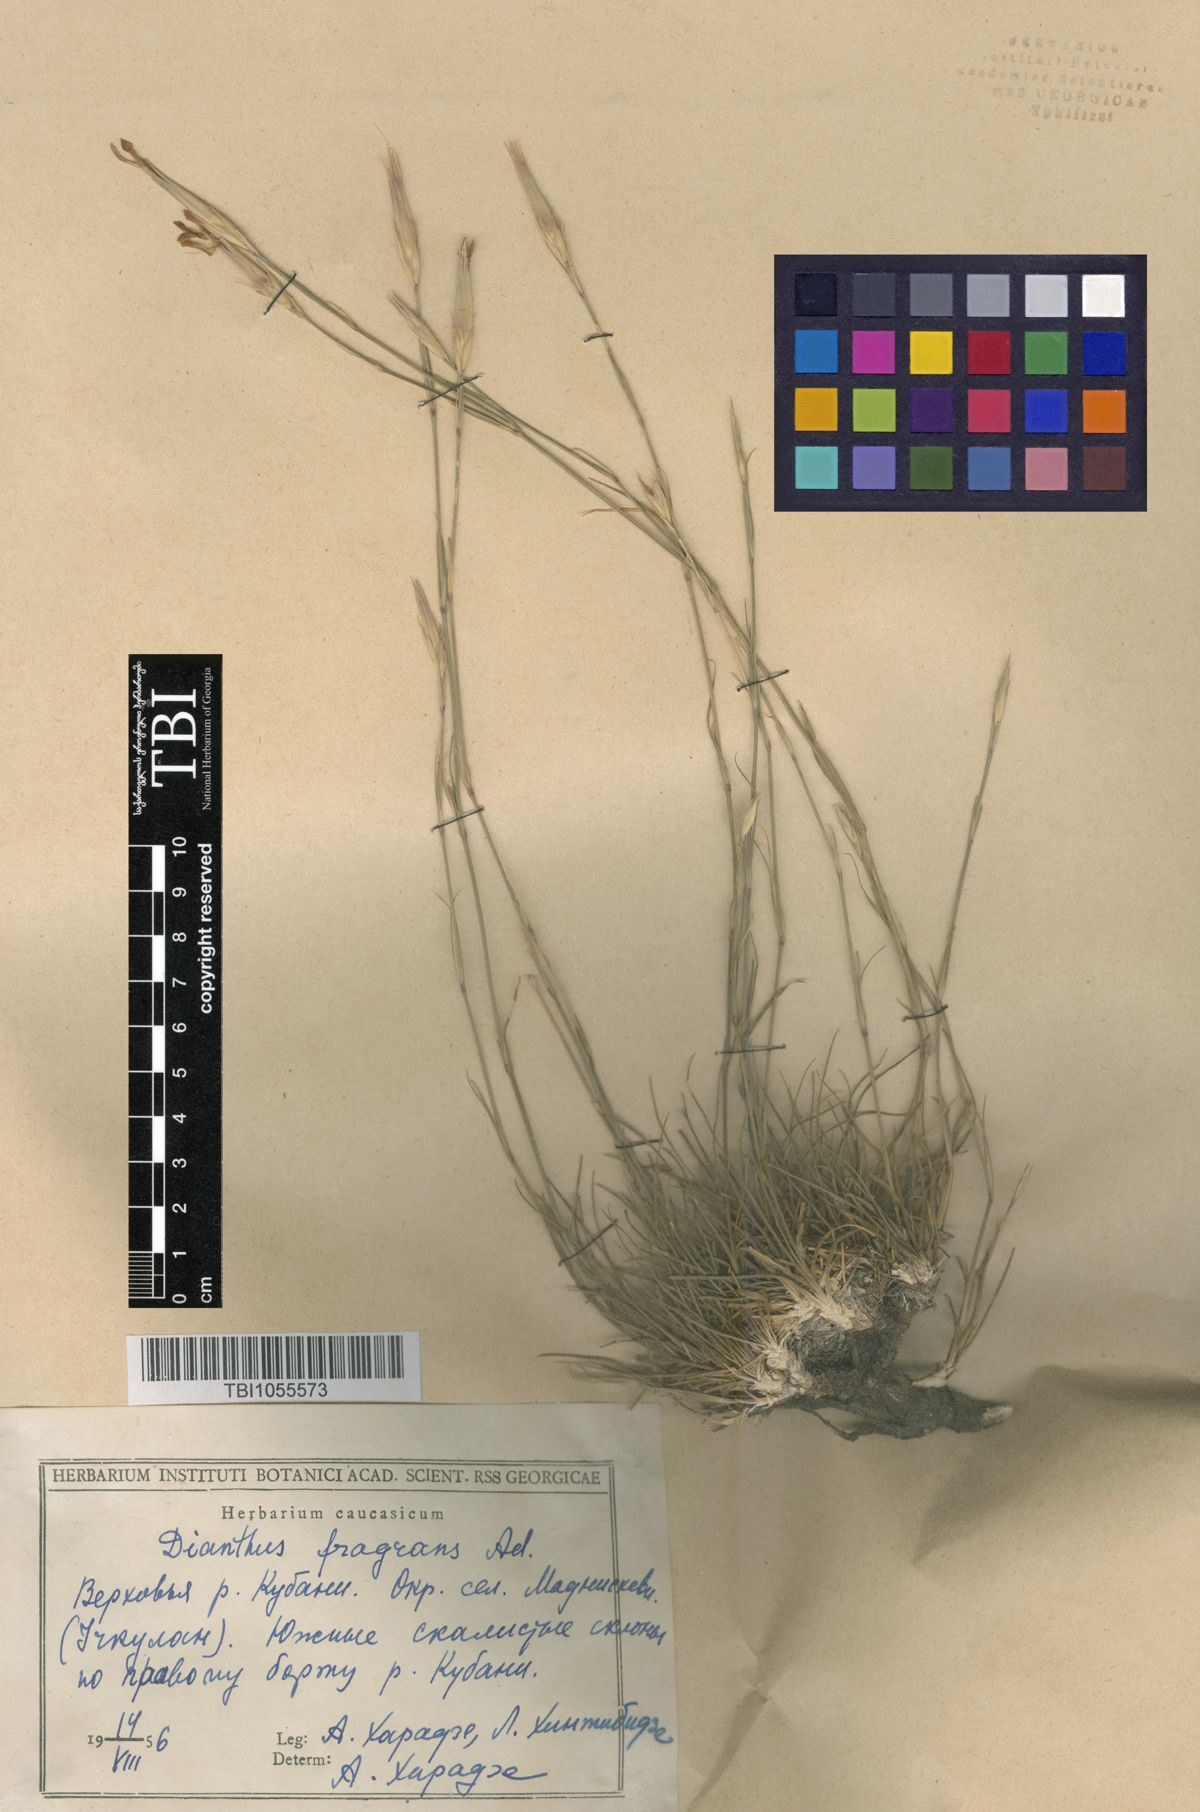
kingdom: Plantae
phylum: Tracheophyta
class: Magnoliopsida
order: Caryophyllales
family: Caryophyllaceae
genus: Dianthus
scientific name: Dianthus
